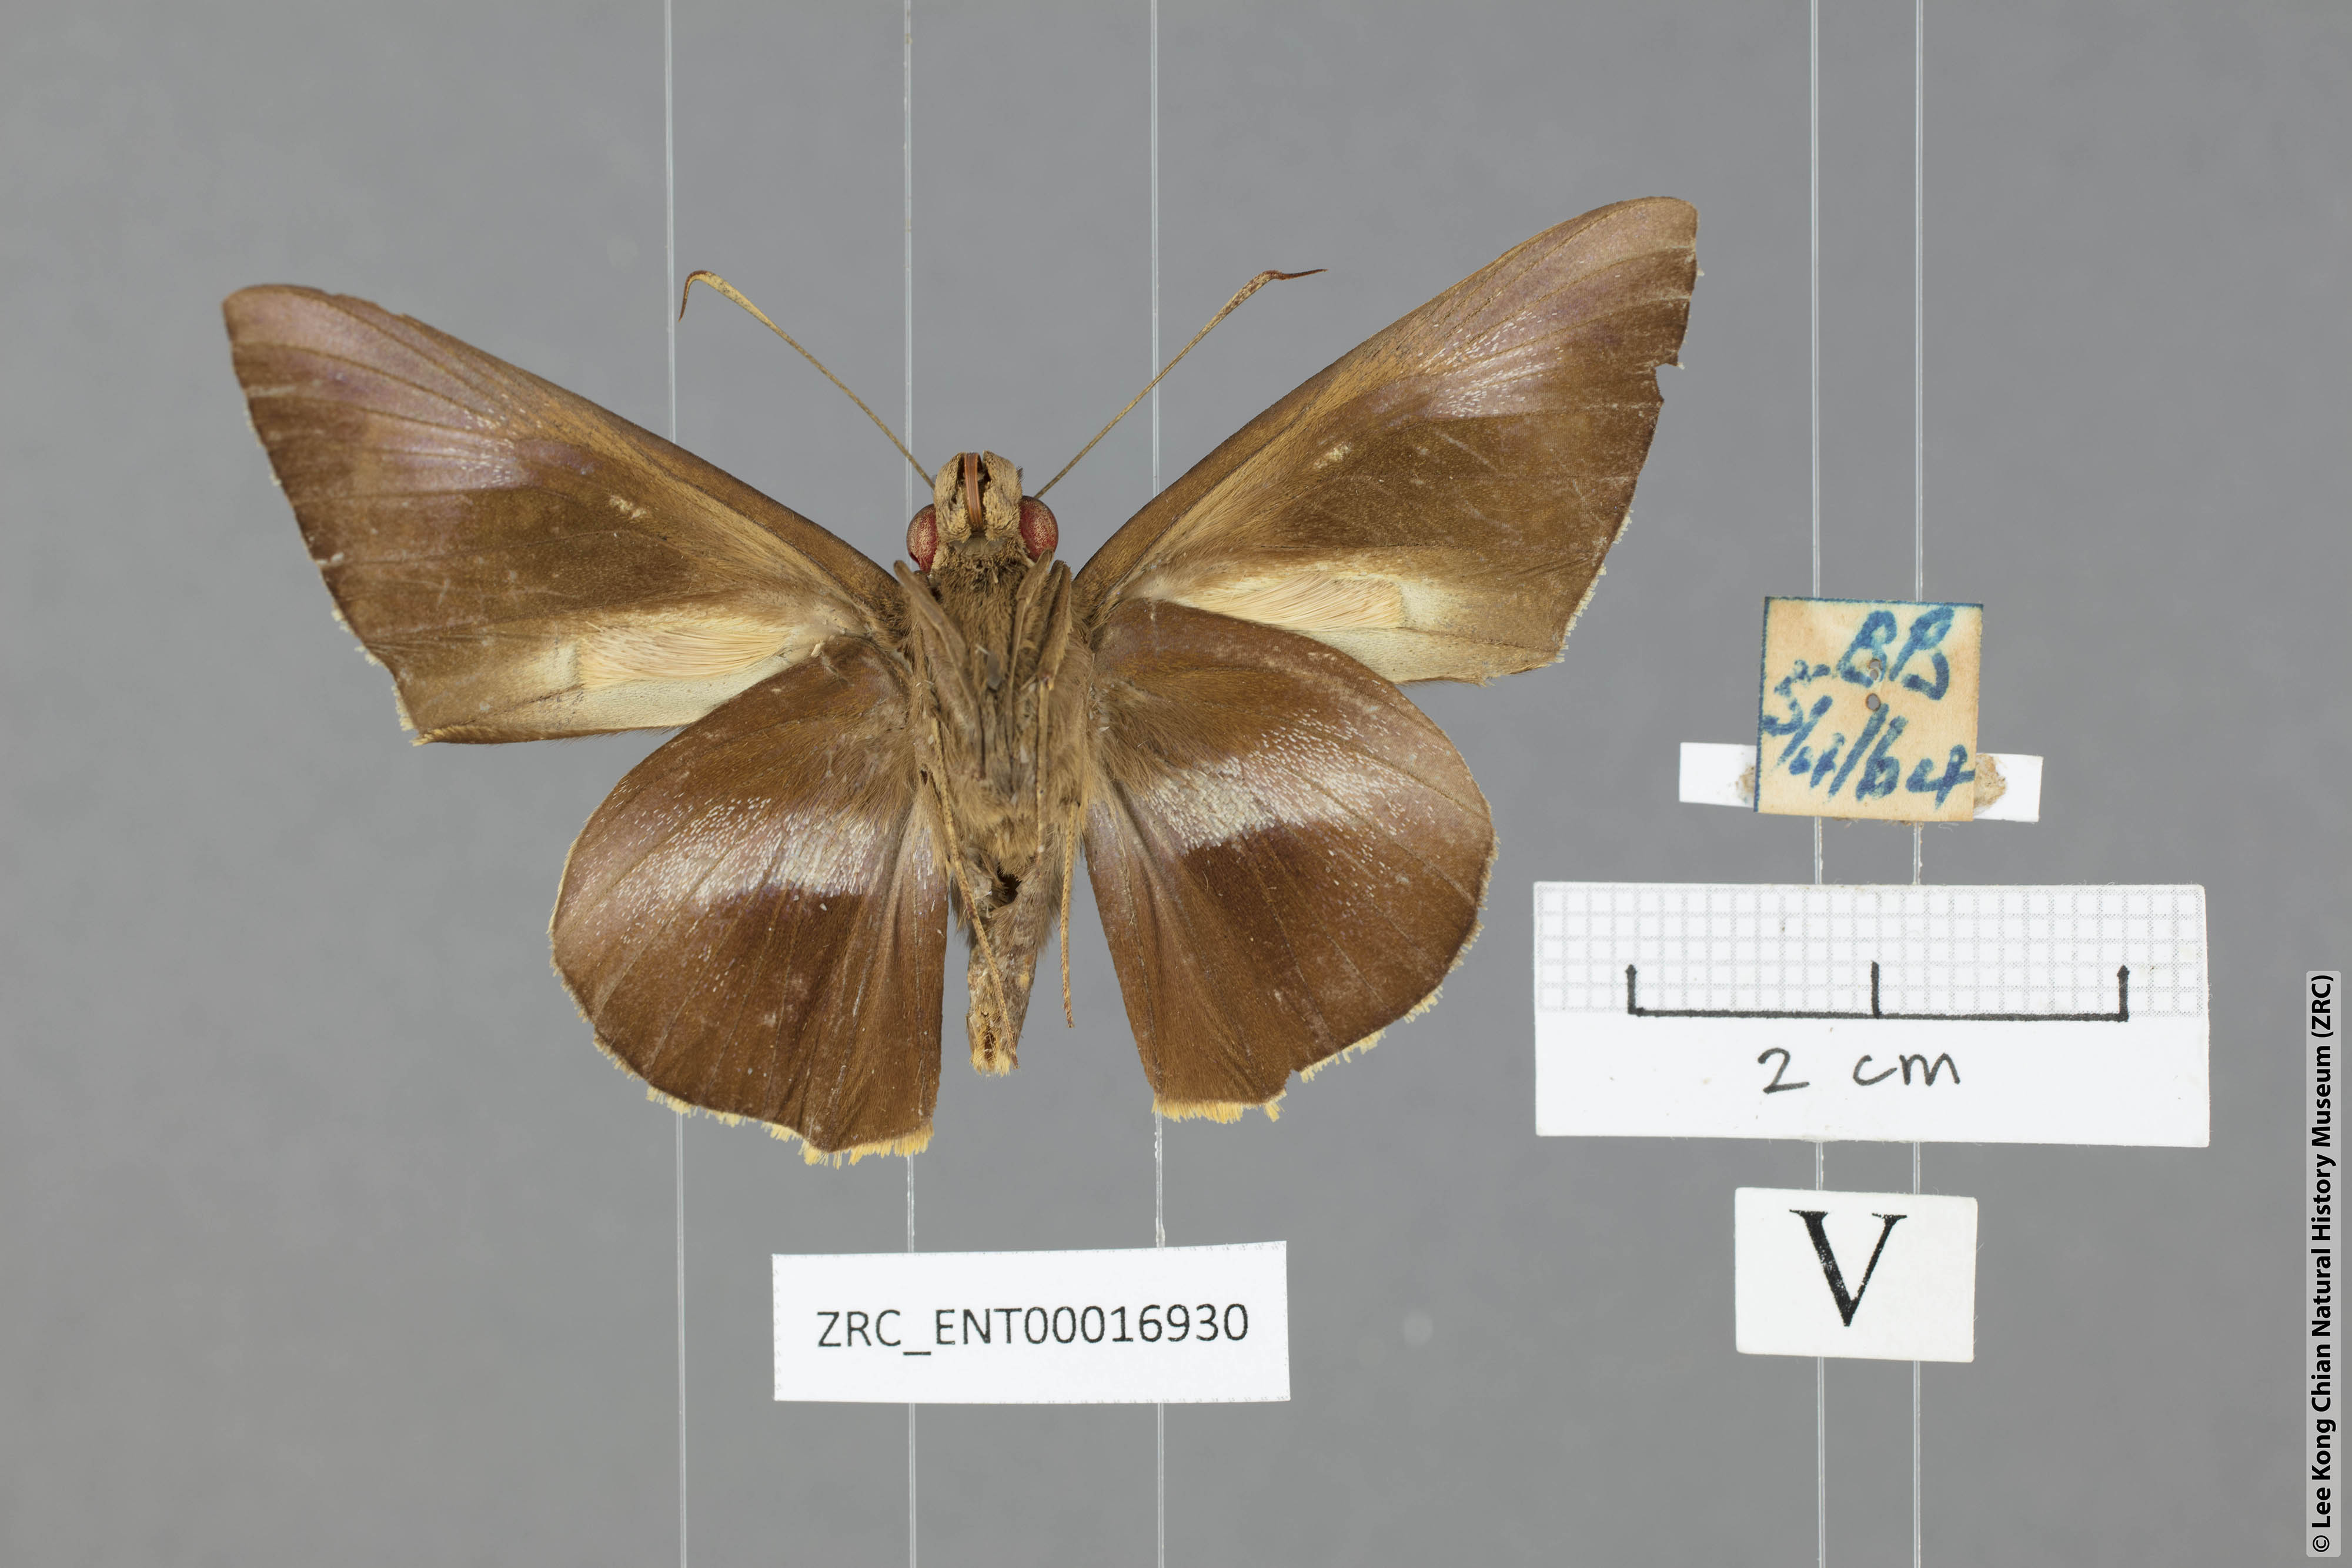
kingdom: Animalia
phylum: Arthropoda
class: Insecta
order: Lepidoptera
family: Hesperiidae
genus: Gangara
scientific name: Gangara lebadea
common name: Banded redeye
